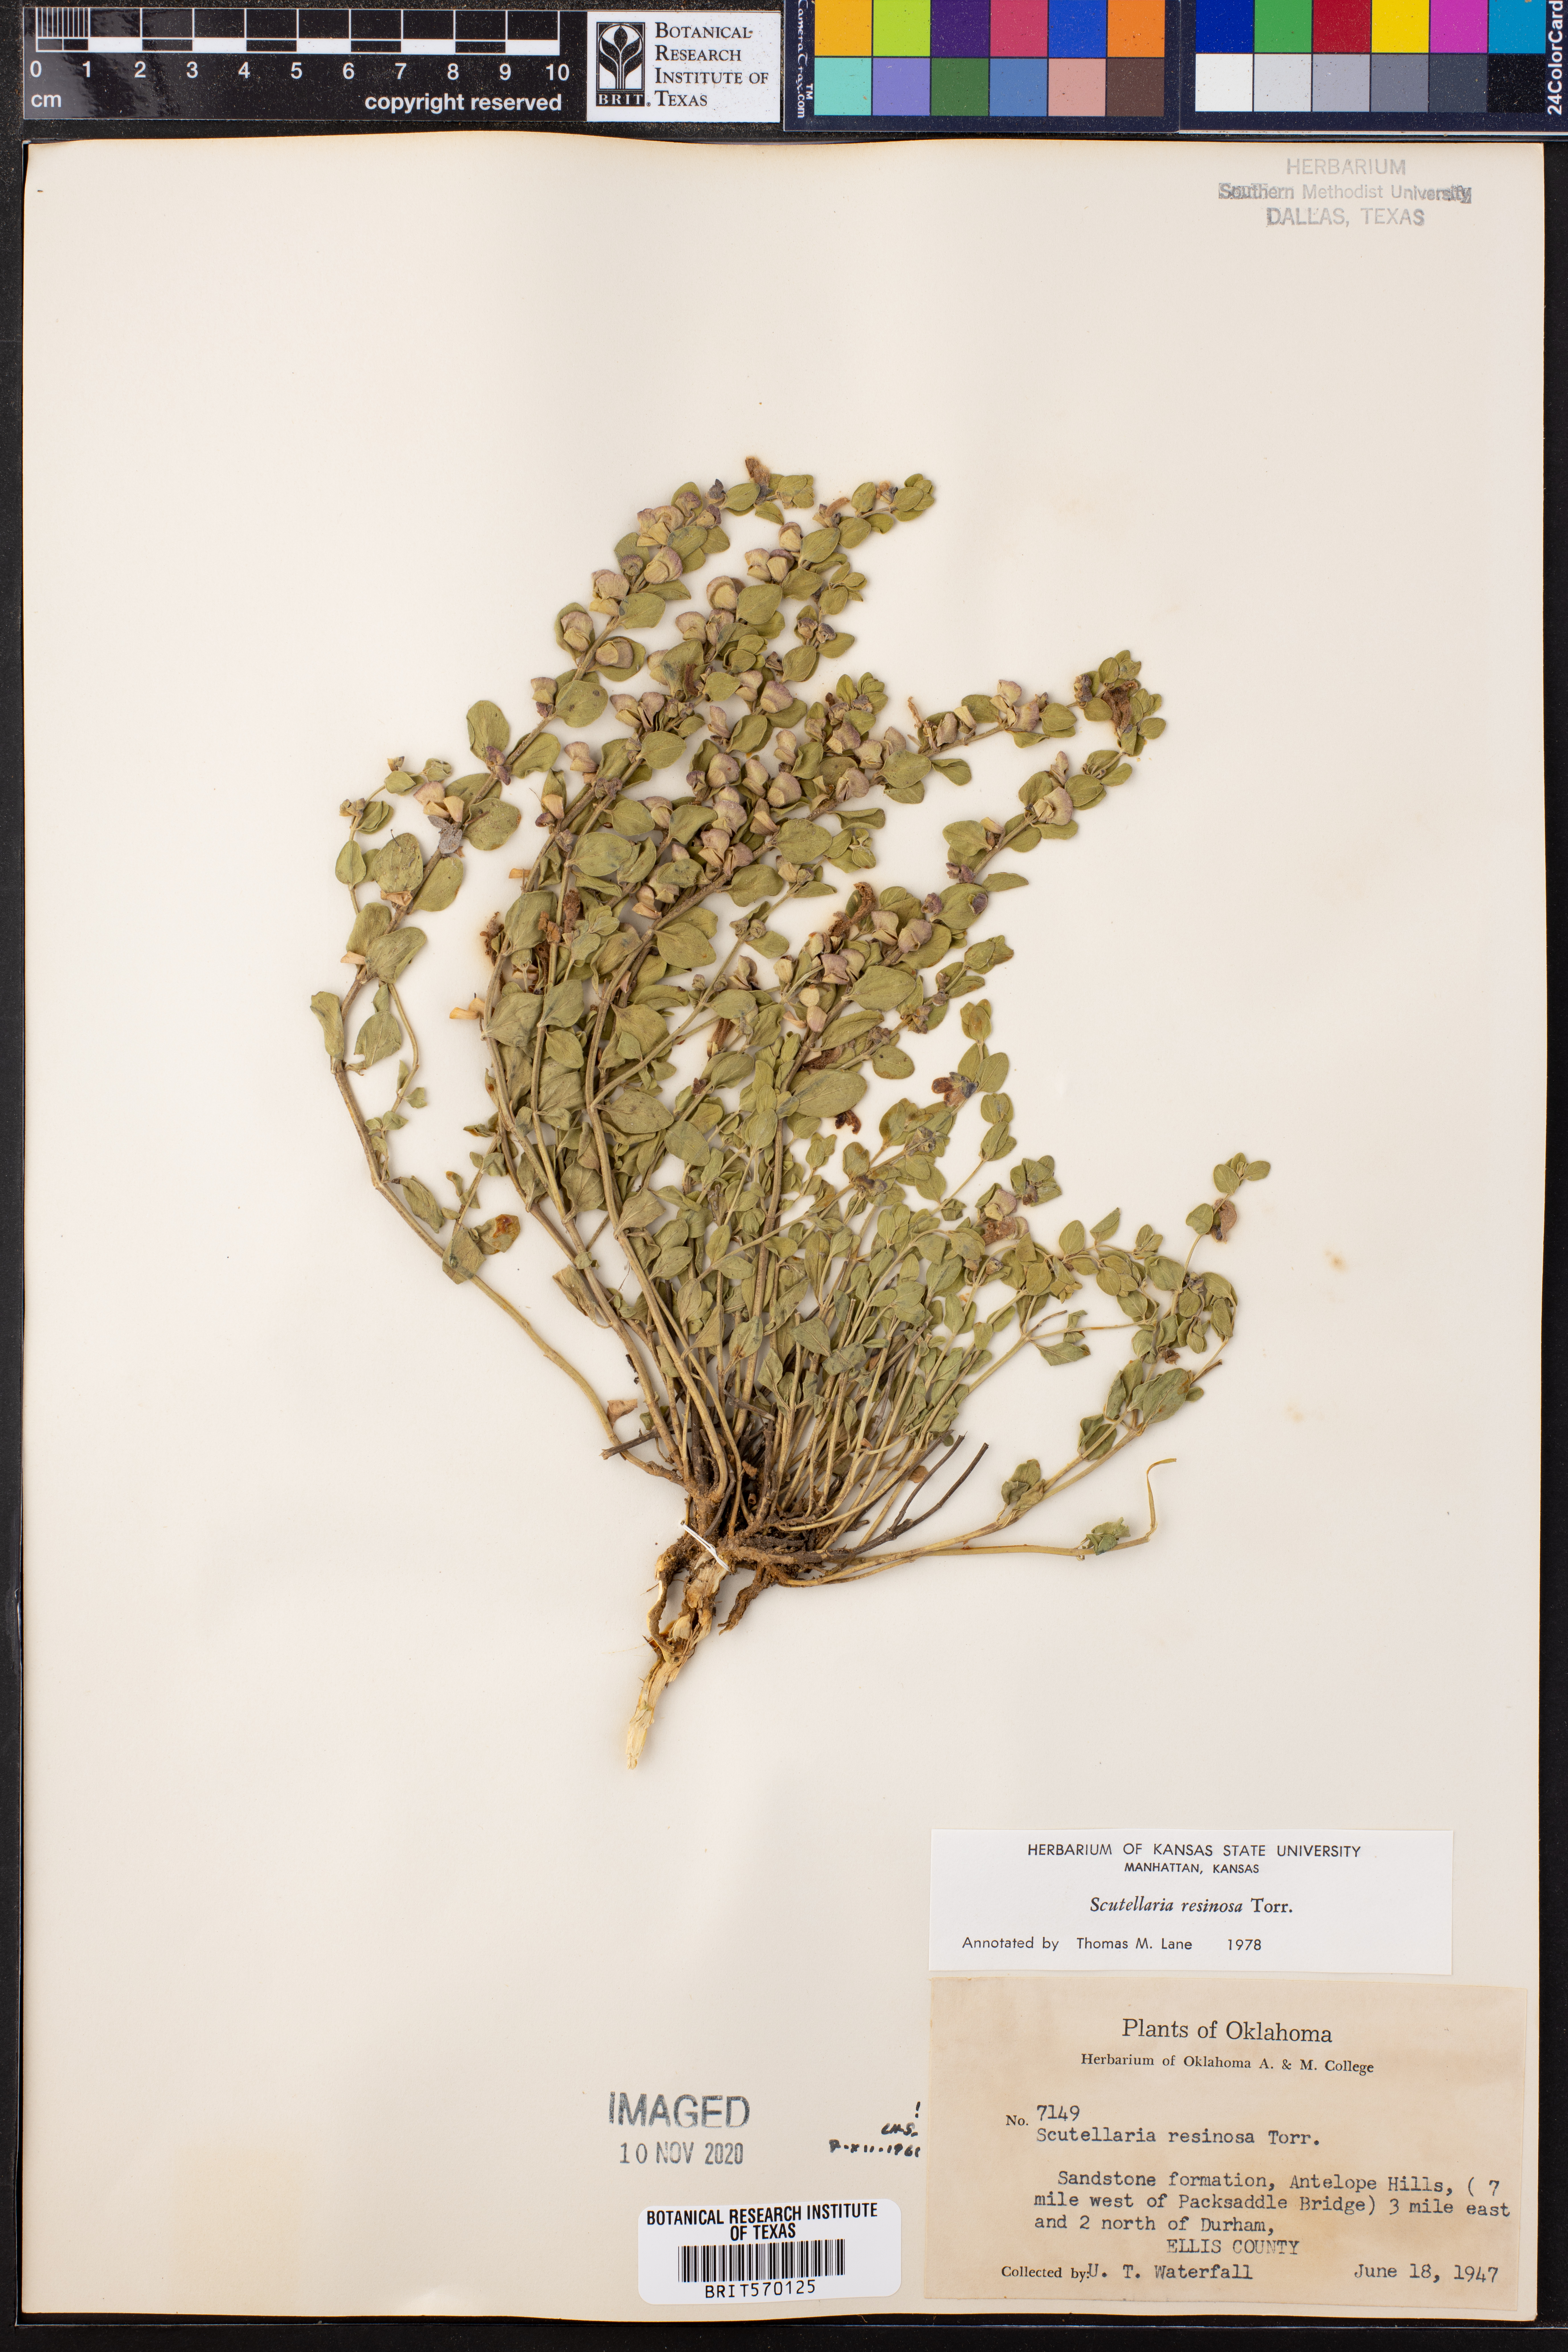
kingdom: Plantae
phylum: Tracheophyta
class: Magnoliopsida
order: Lamiales
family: Lamiaceae
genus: Scutellaria
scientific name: Scutellaria resinosa
